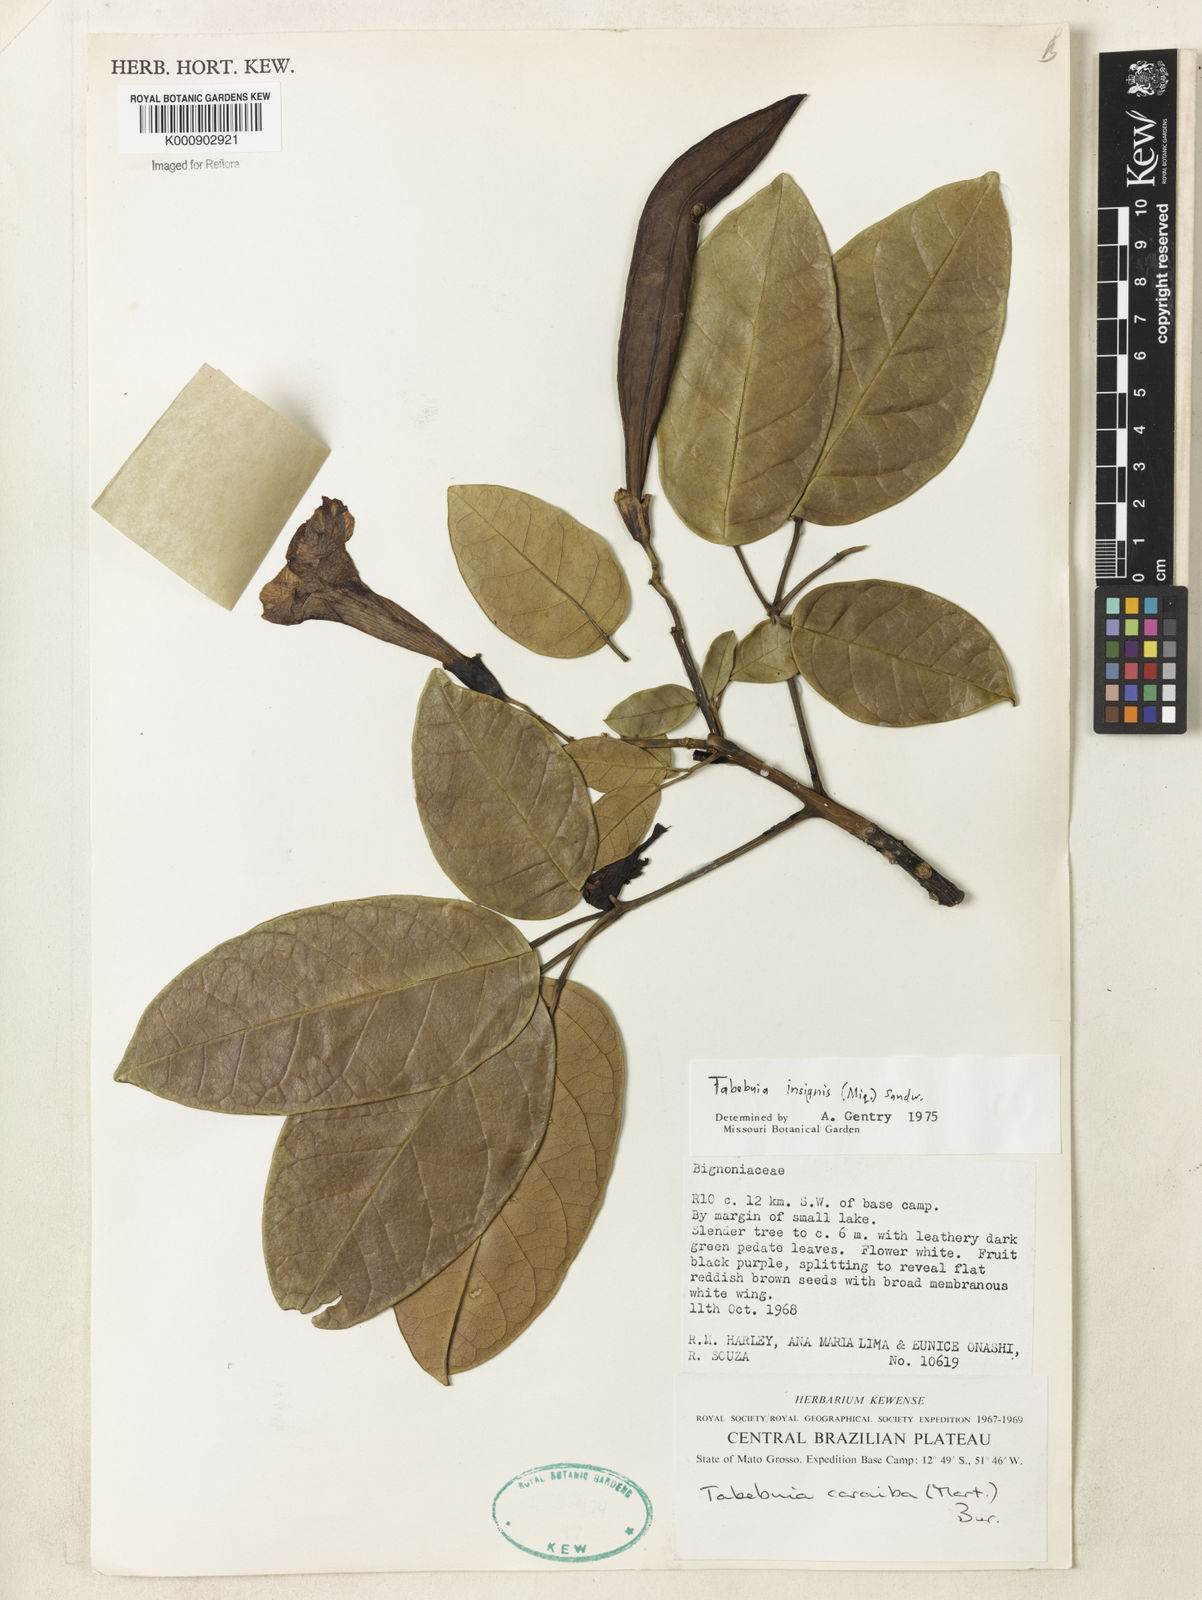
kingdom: Plantae
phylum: Tracheophyta
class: Magnoliopsida
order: Lamiales
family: Bignoniaceae
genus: Tabebuia
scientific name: Tabebuia insignis
